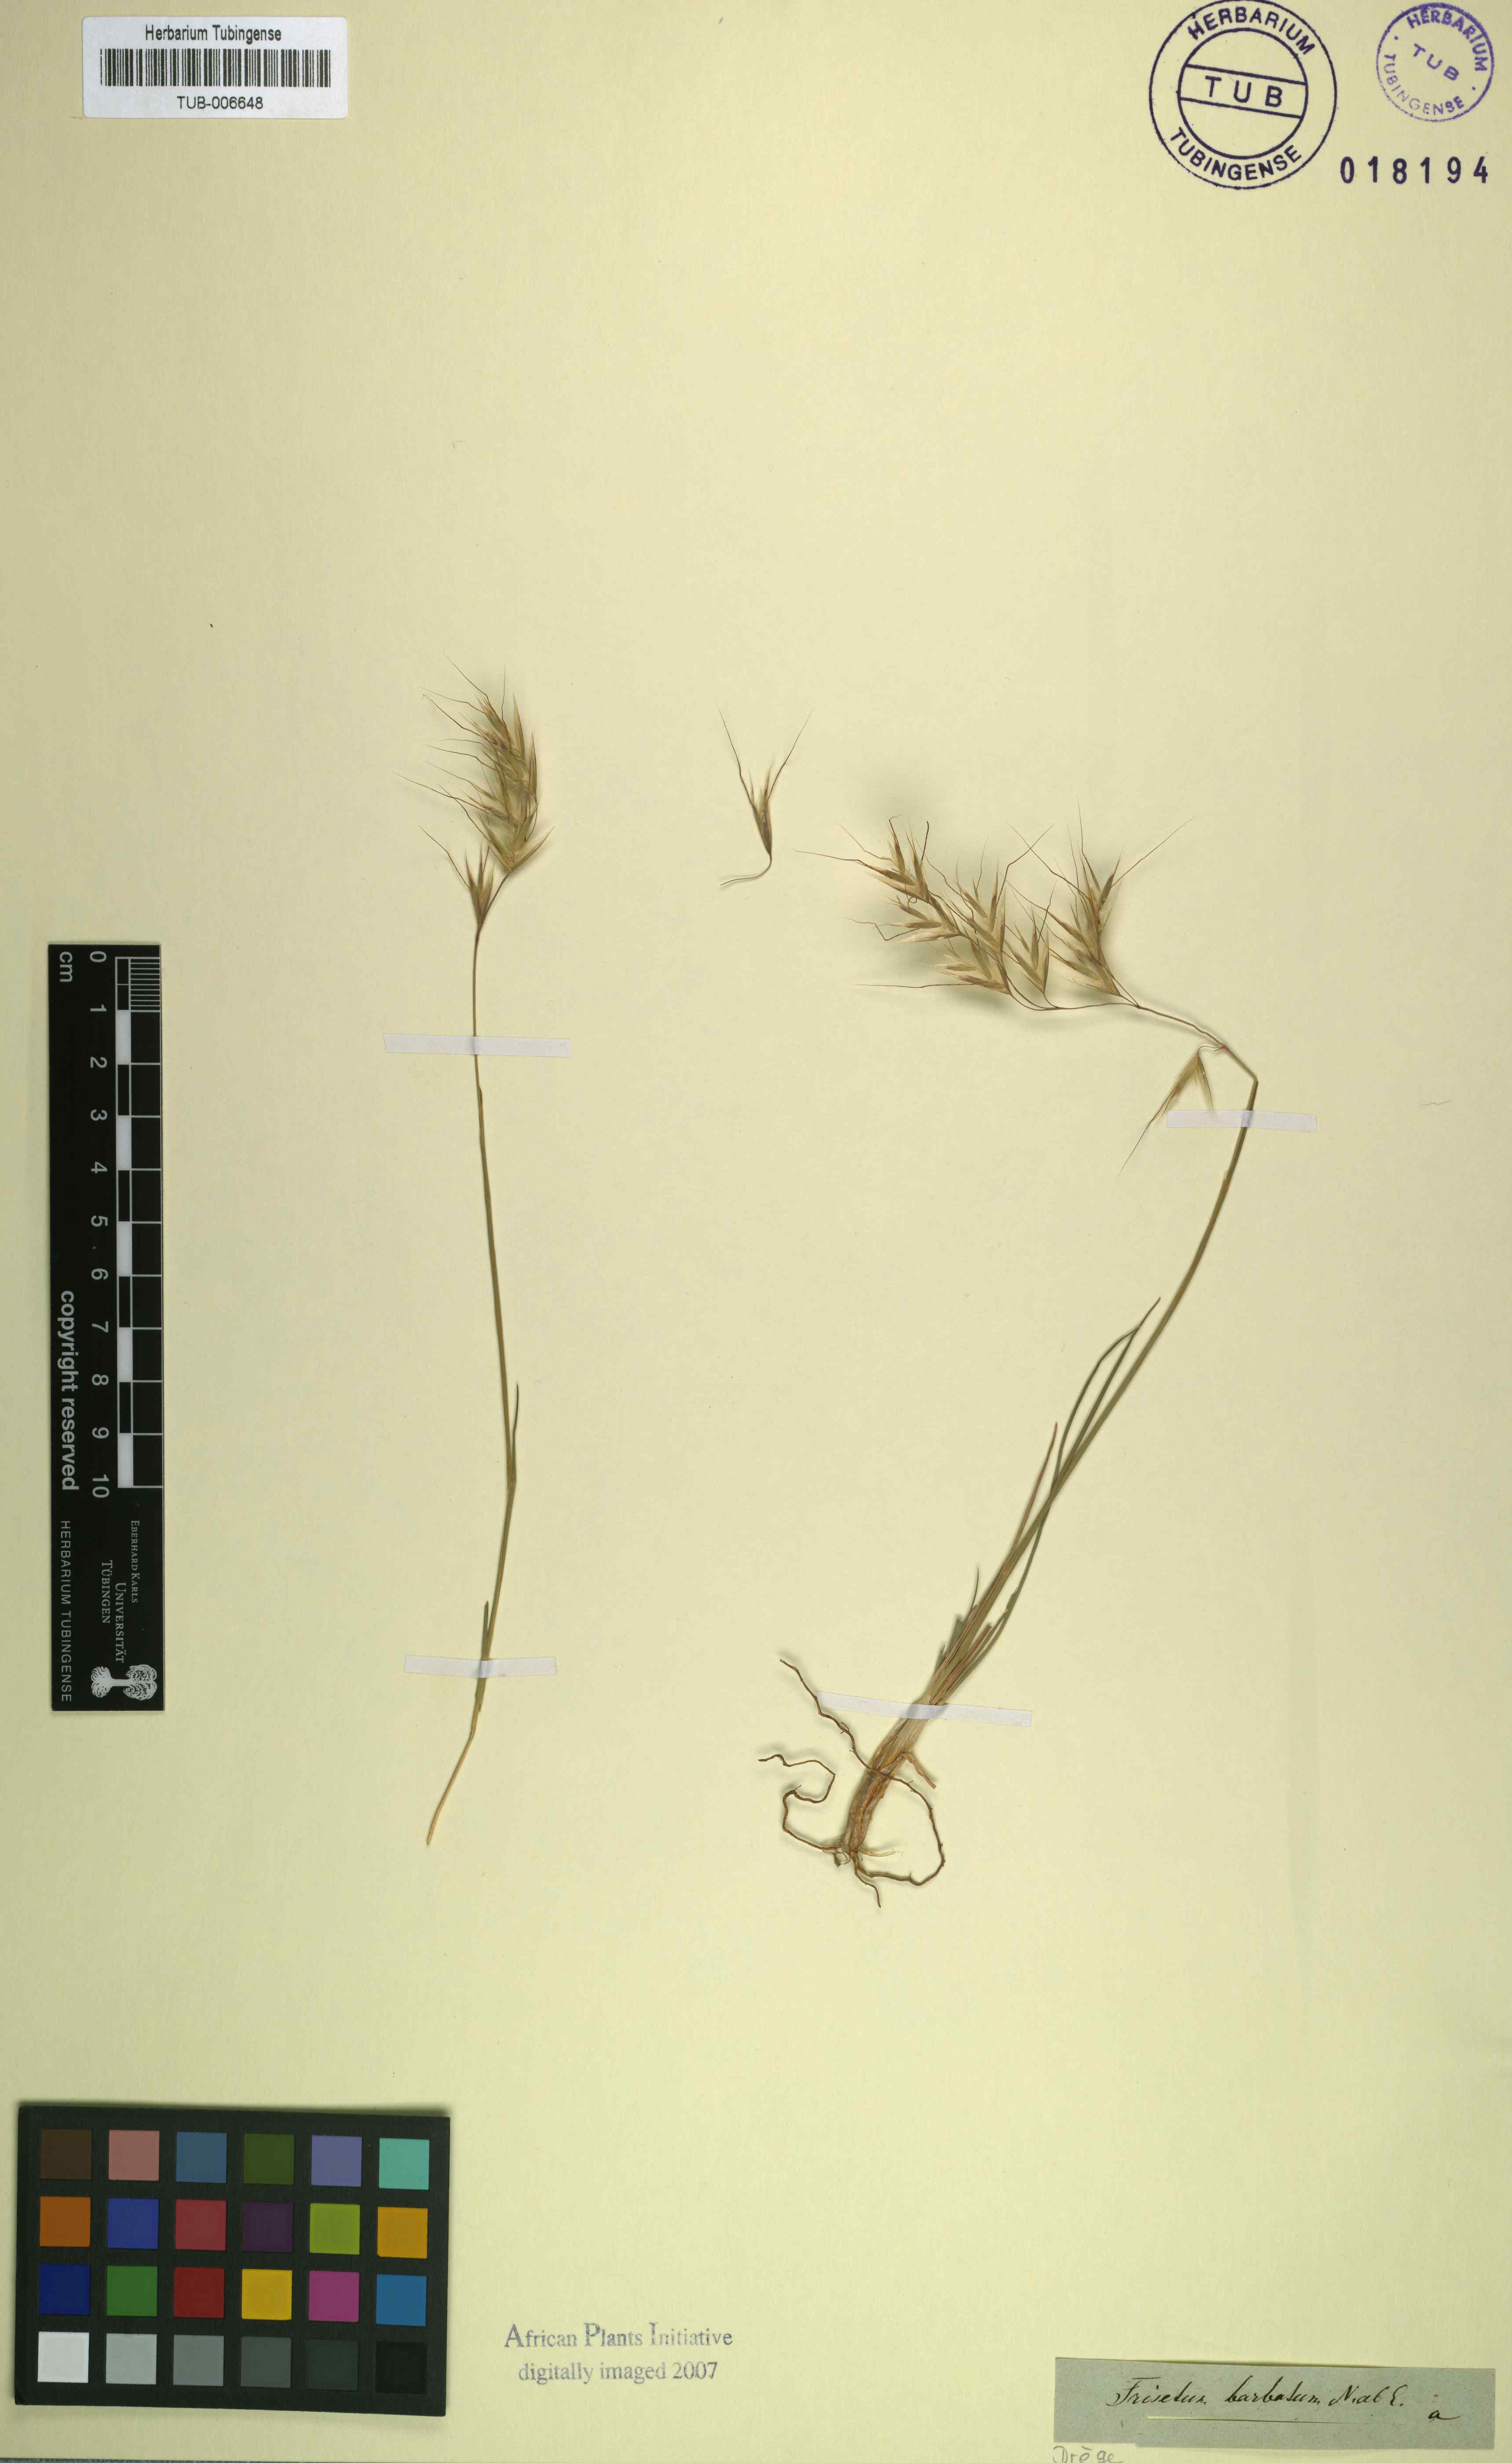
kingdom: Plantae
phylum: Tracheophyta
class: Liliopsida
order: Poales
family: Poaceae
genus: Trisetopsis
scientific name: Trisetopsis barbata
